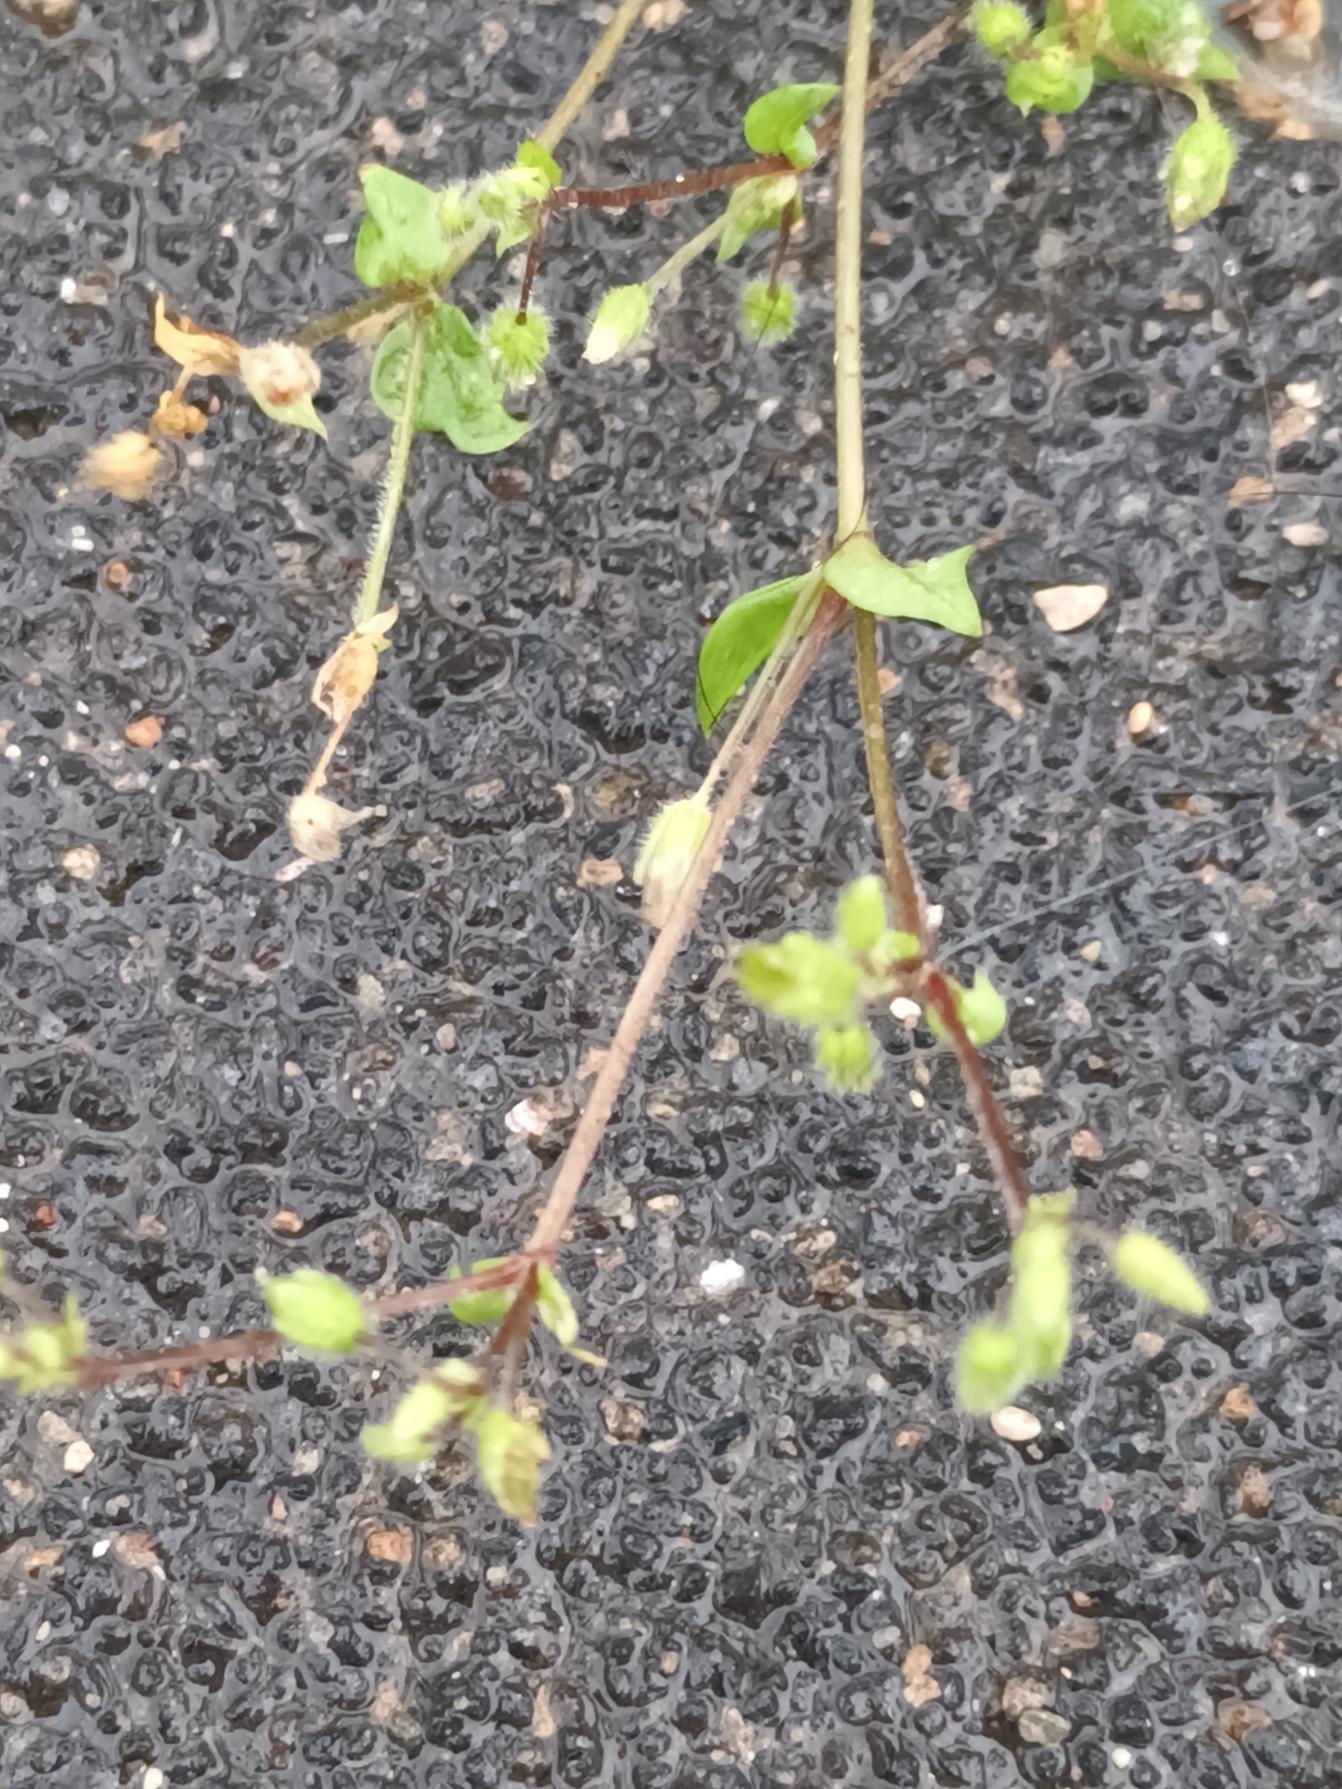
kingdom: Plantae
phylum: Tracheophyta
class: Magnoliopsida
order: Caryophyllales
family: Caryophyllaceae
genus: Stellaria
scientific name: Stellaria media
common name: Almindelig fuglegræs
